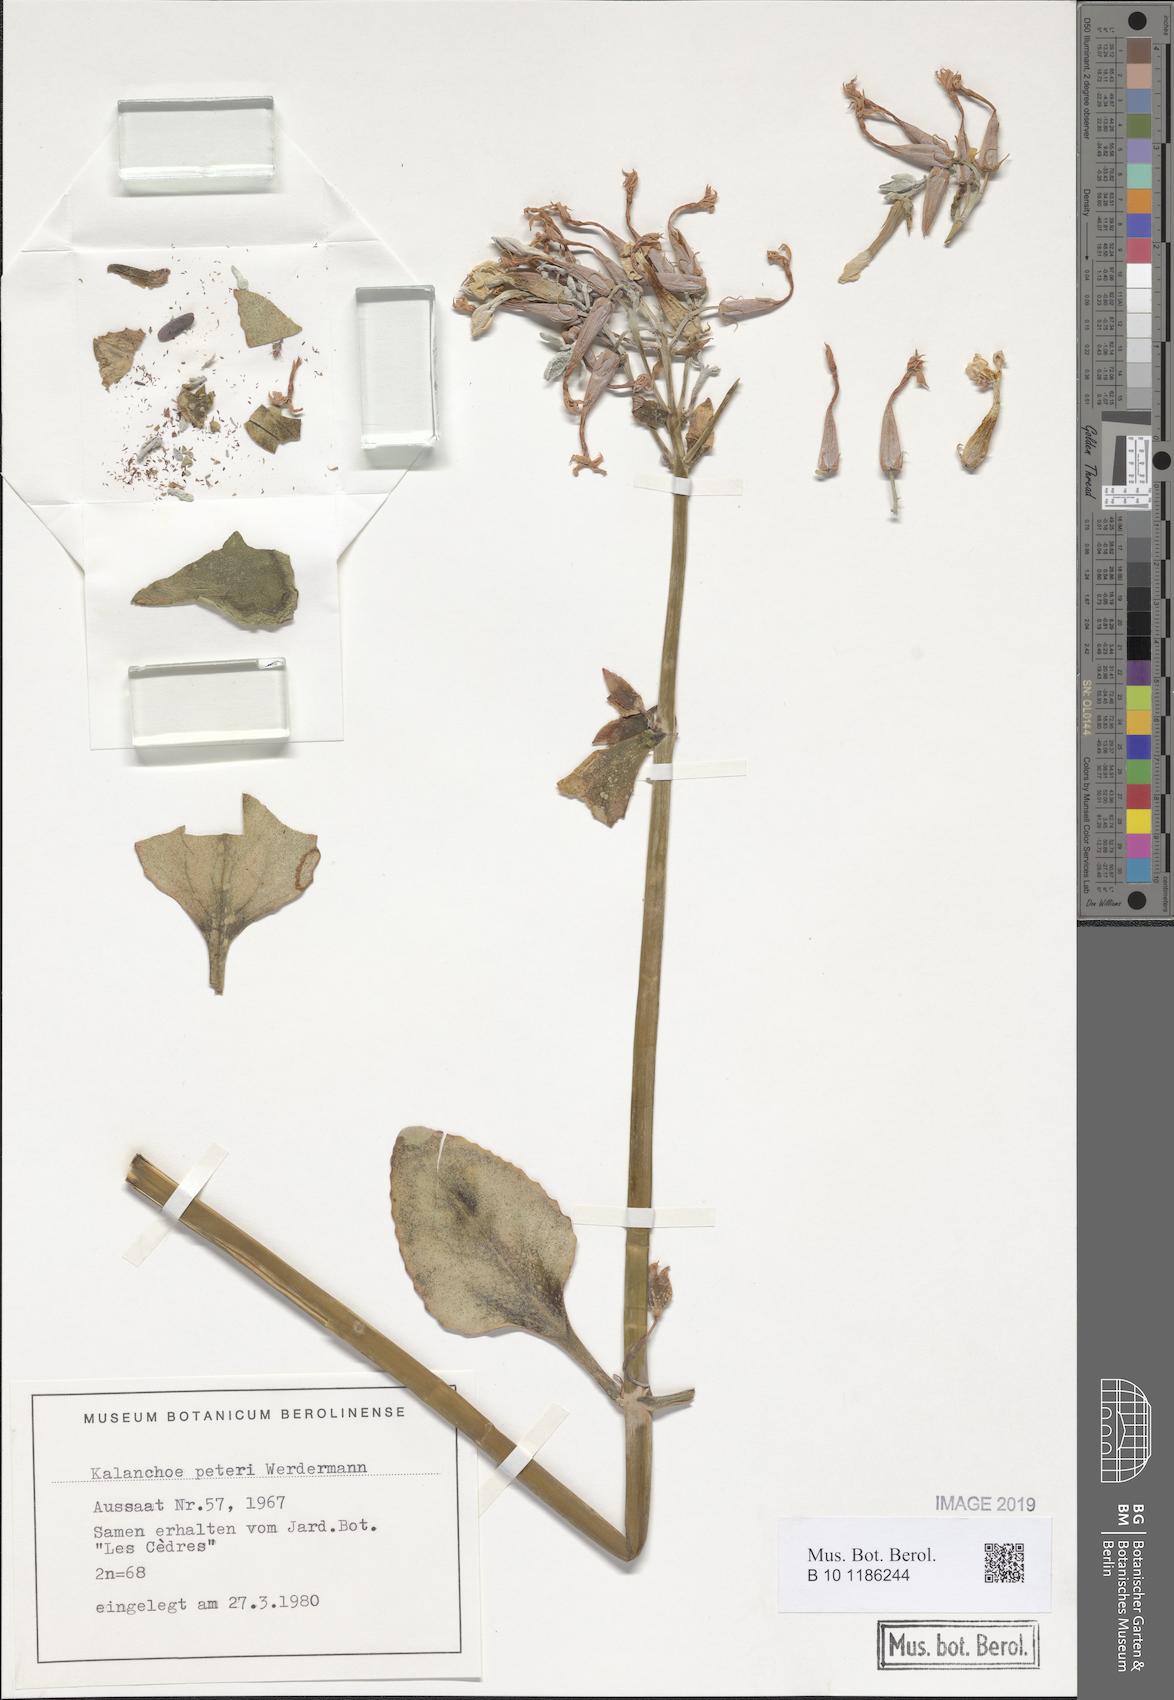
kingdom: Plantae
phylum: Tracheophyta
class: Magnoliopsida
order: Saxifragales
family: Crassulaceae
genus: Kalanchoe
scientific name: Kalanchoe peteri
